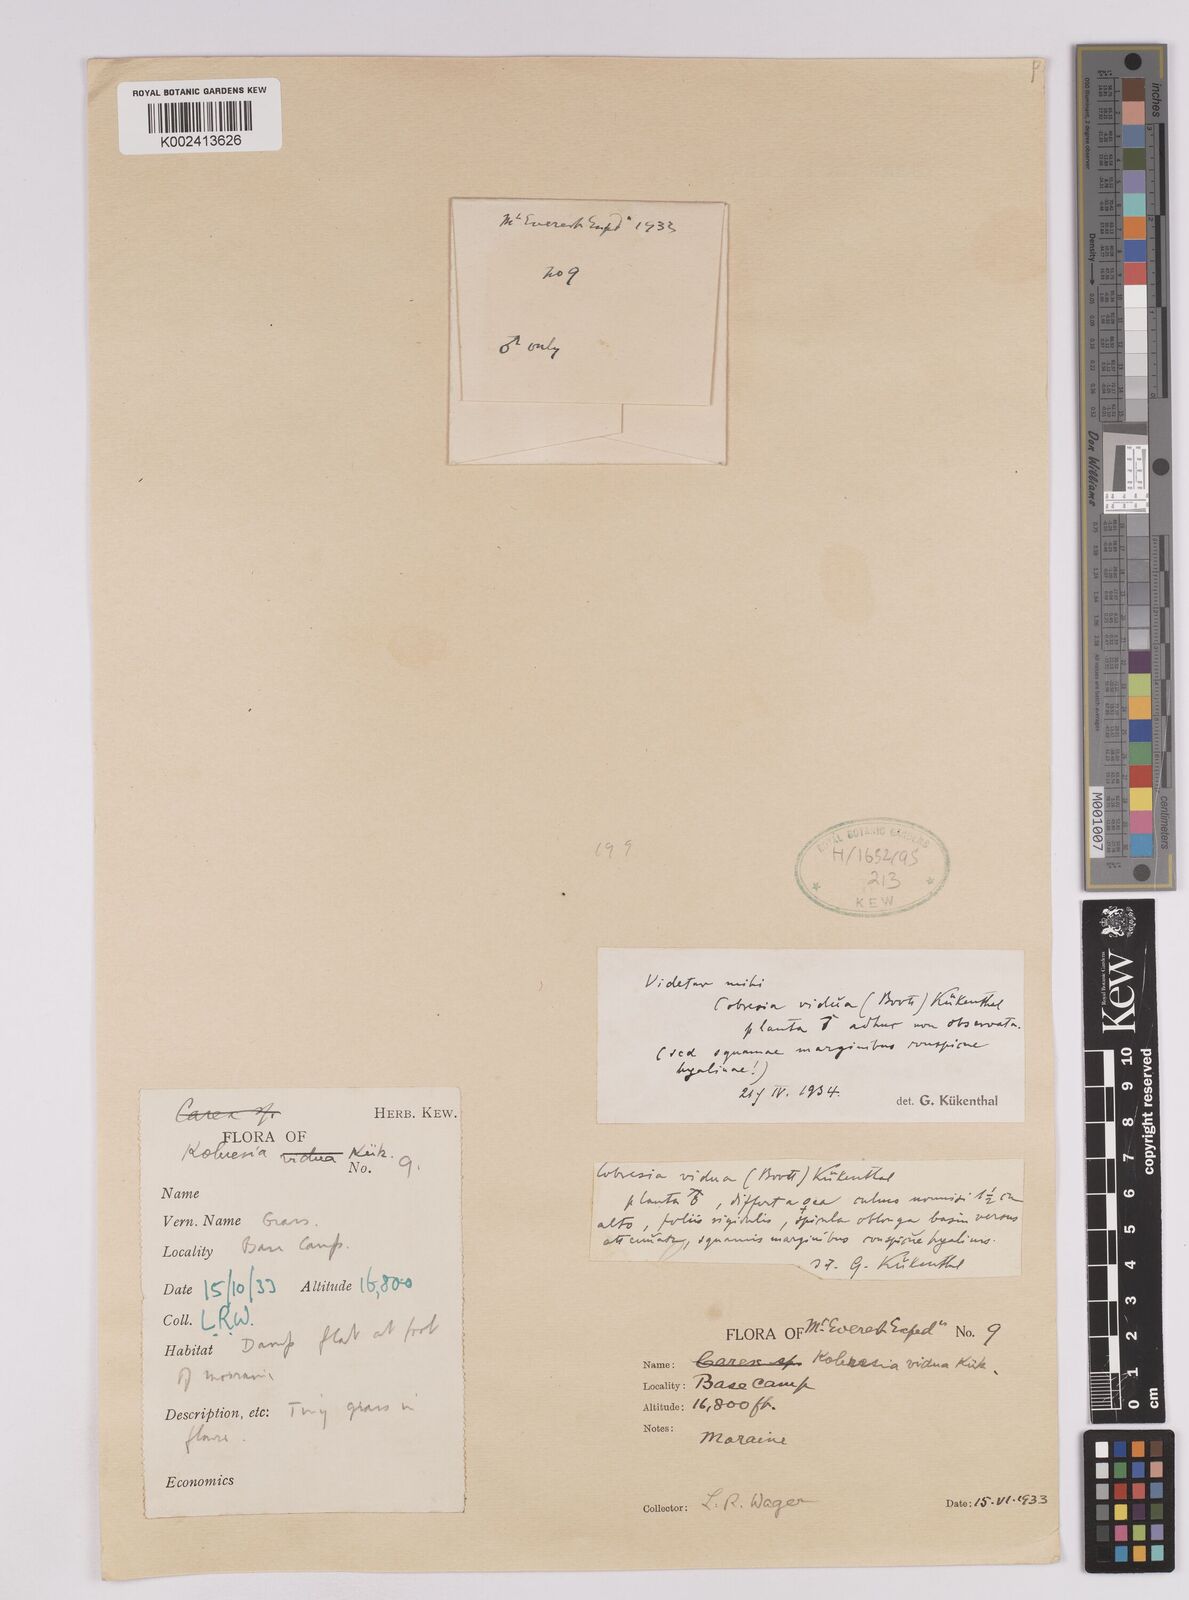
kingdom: Plantae
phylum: Tracheophyta
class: Liliopsida
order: Poales
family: Cyperaceae
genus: Carex
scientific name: Carex vidua
